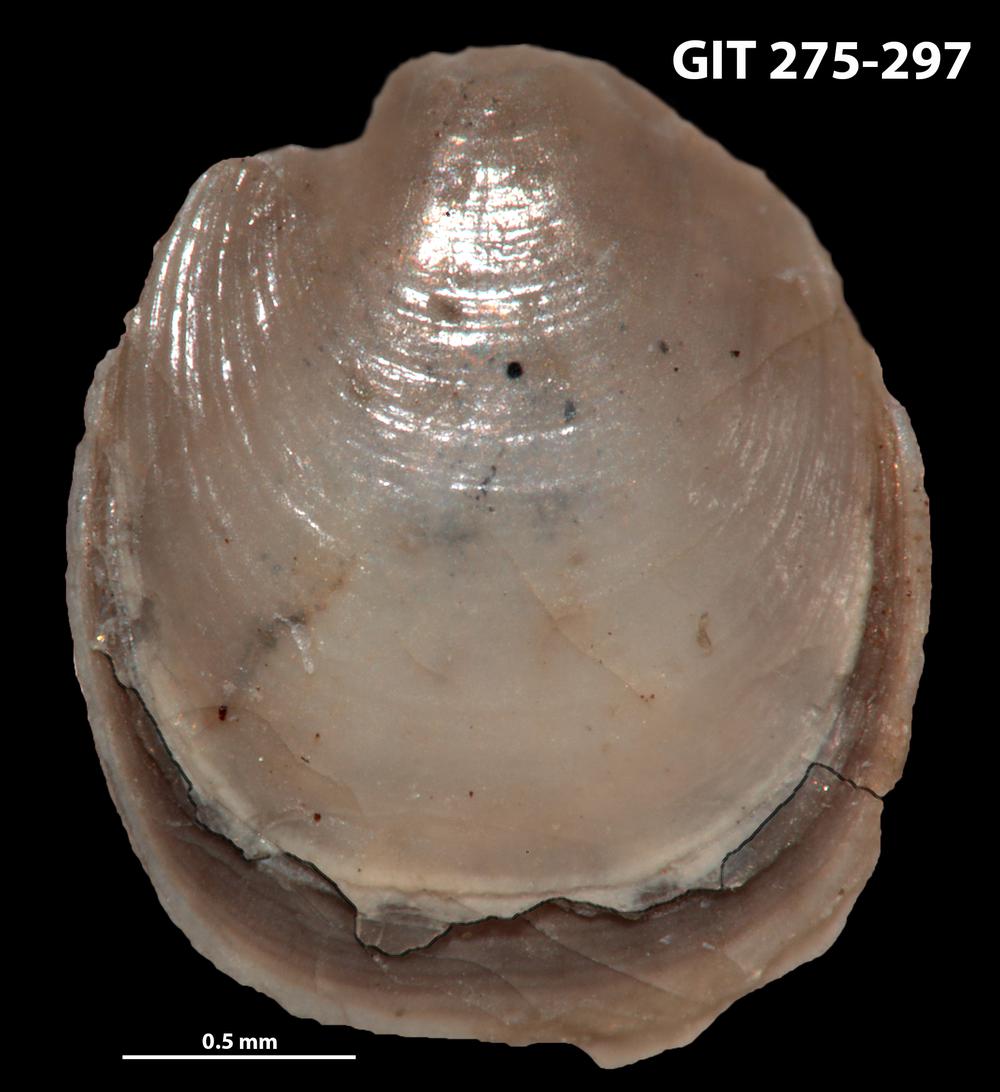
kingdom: Animalia
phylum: Brachiopoda
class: Lingulata
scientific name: Lingulata
